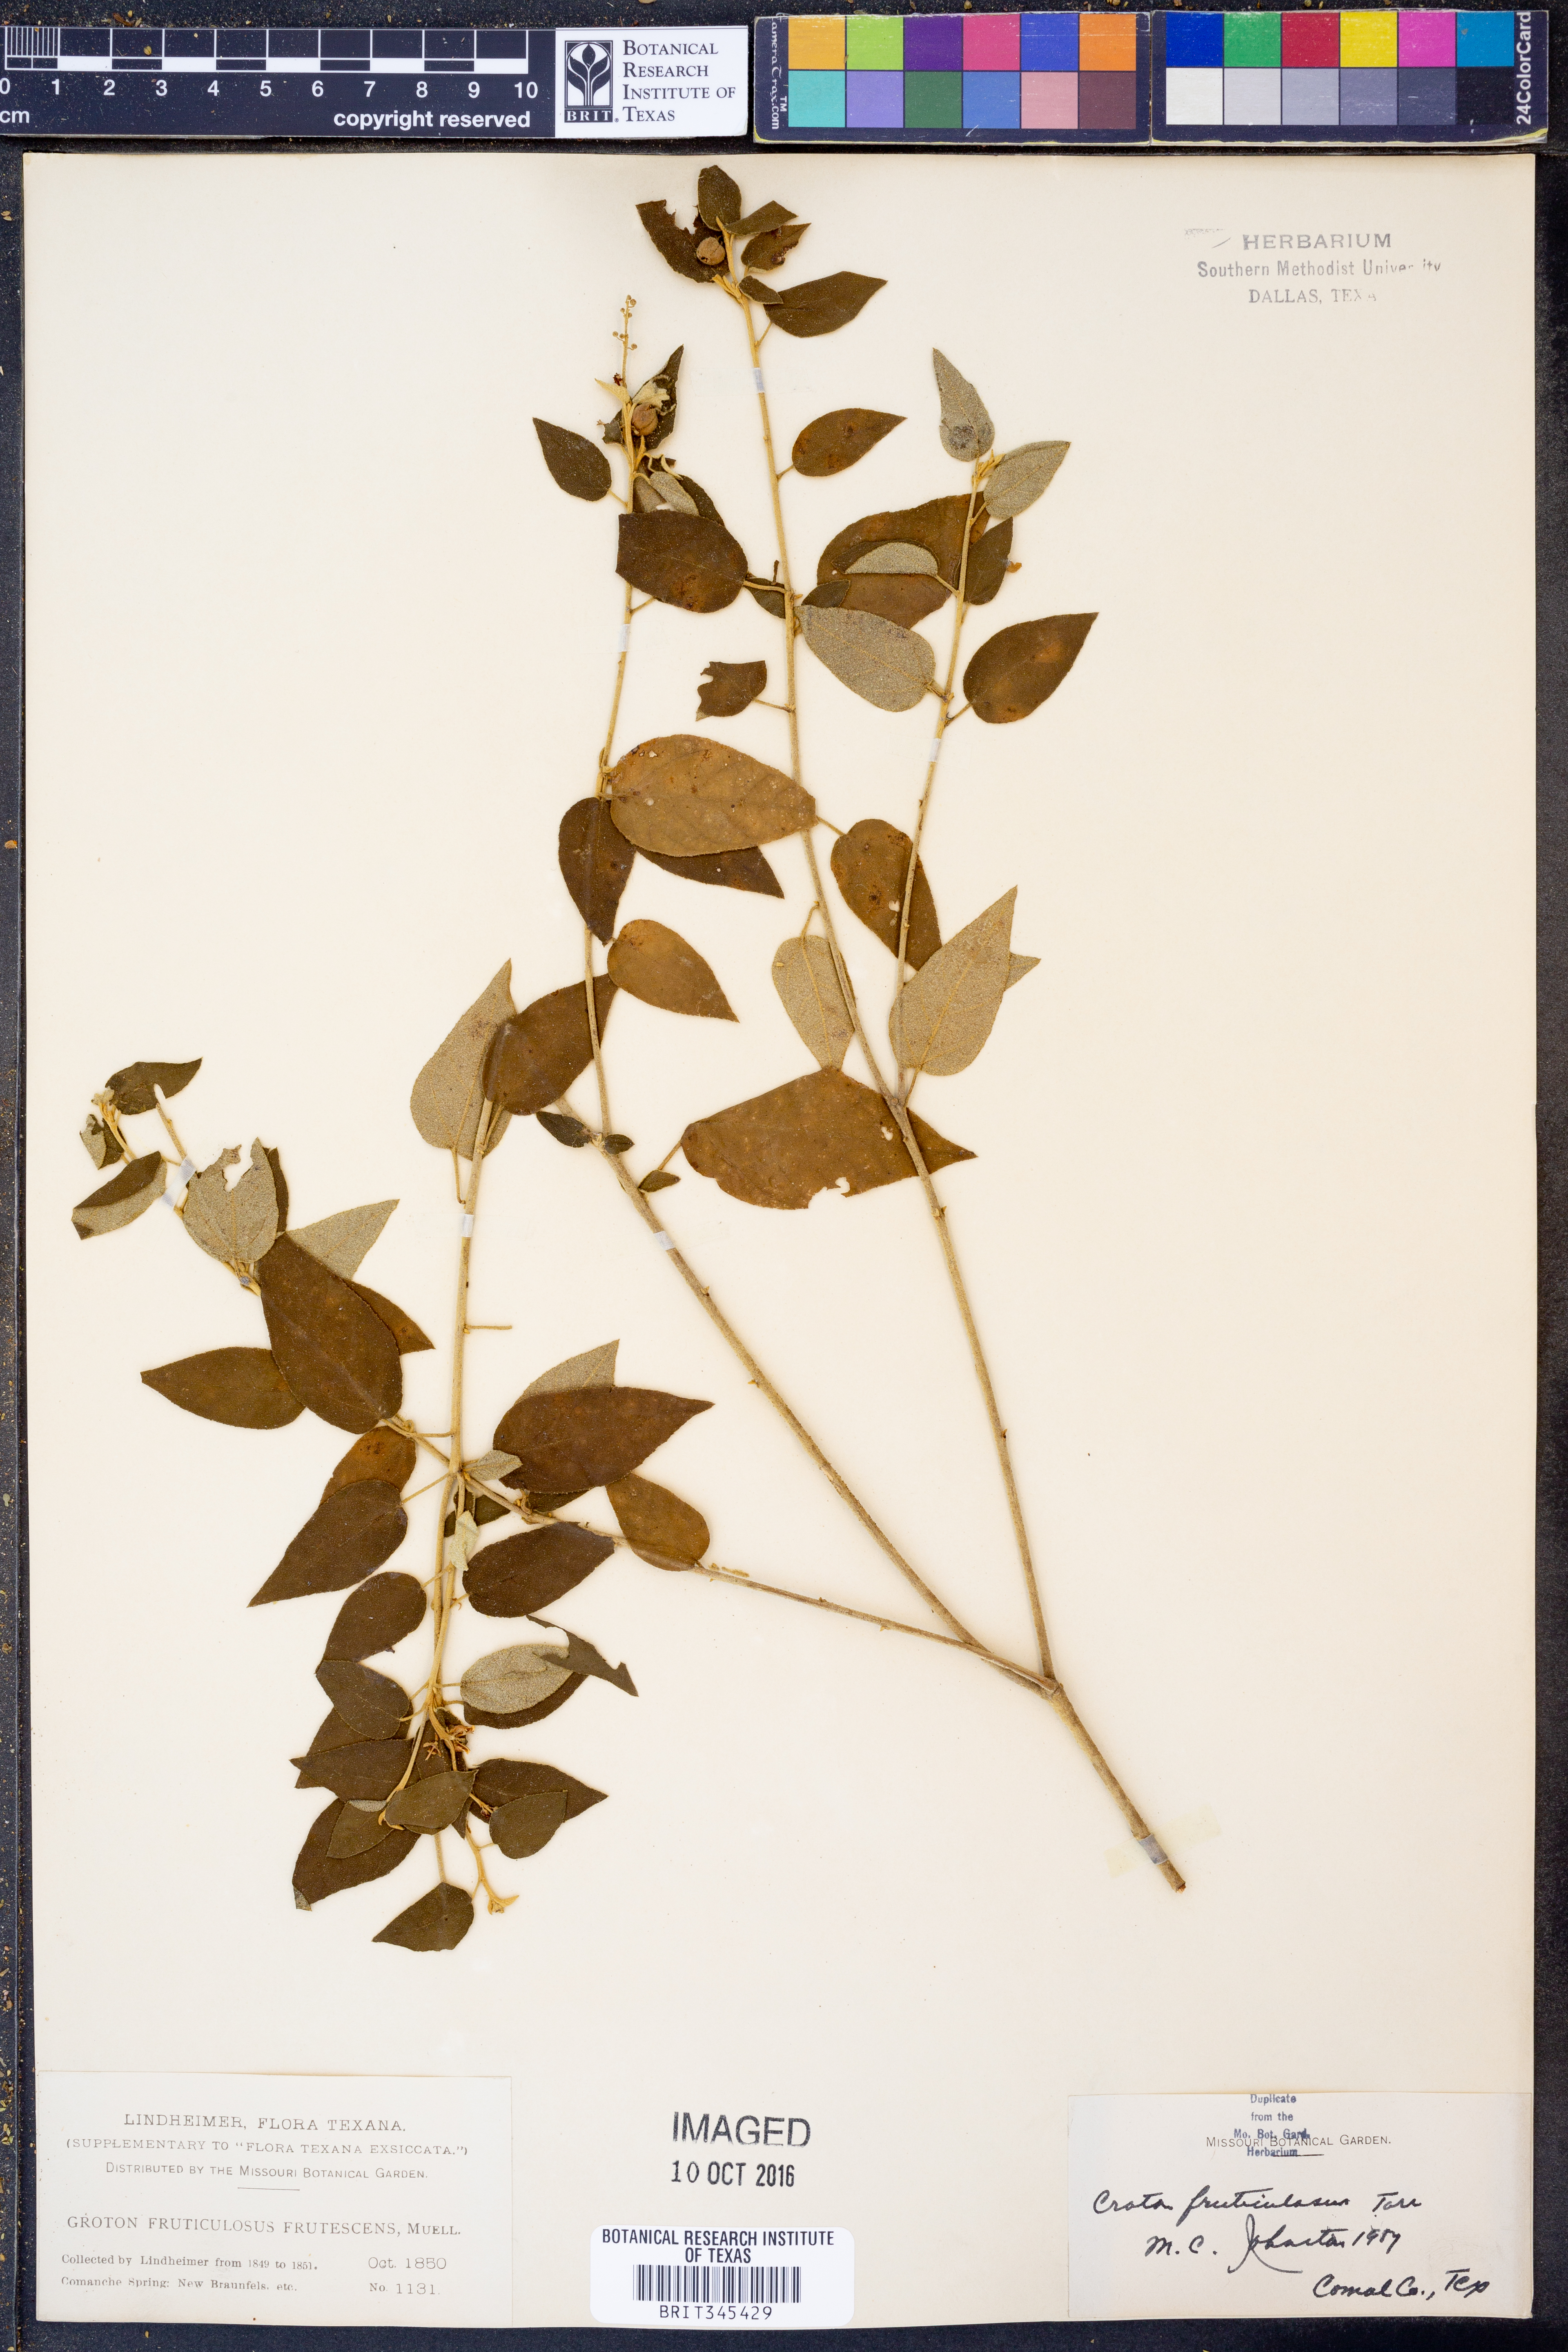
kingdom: Plantae
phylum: Tracheophyta
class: Magnoliopsida
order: Malpighiales
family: Euphorbiaceae
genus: Croton
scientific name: Croton fruticulosus
